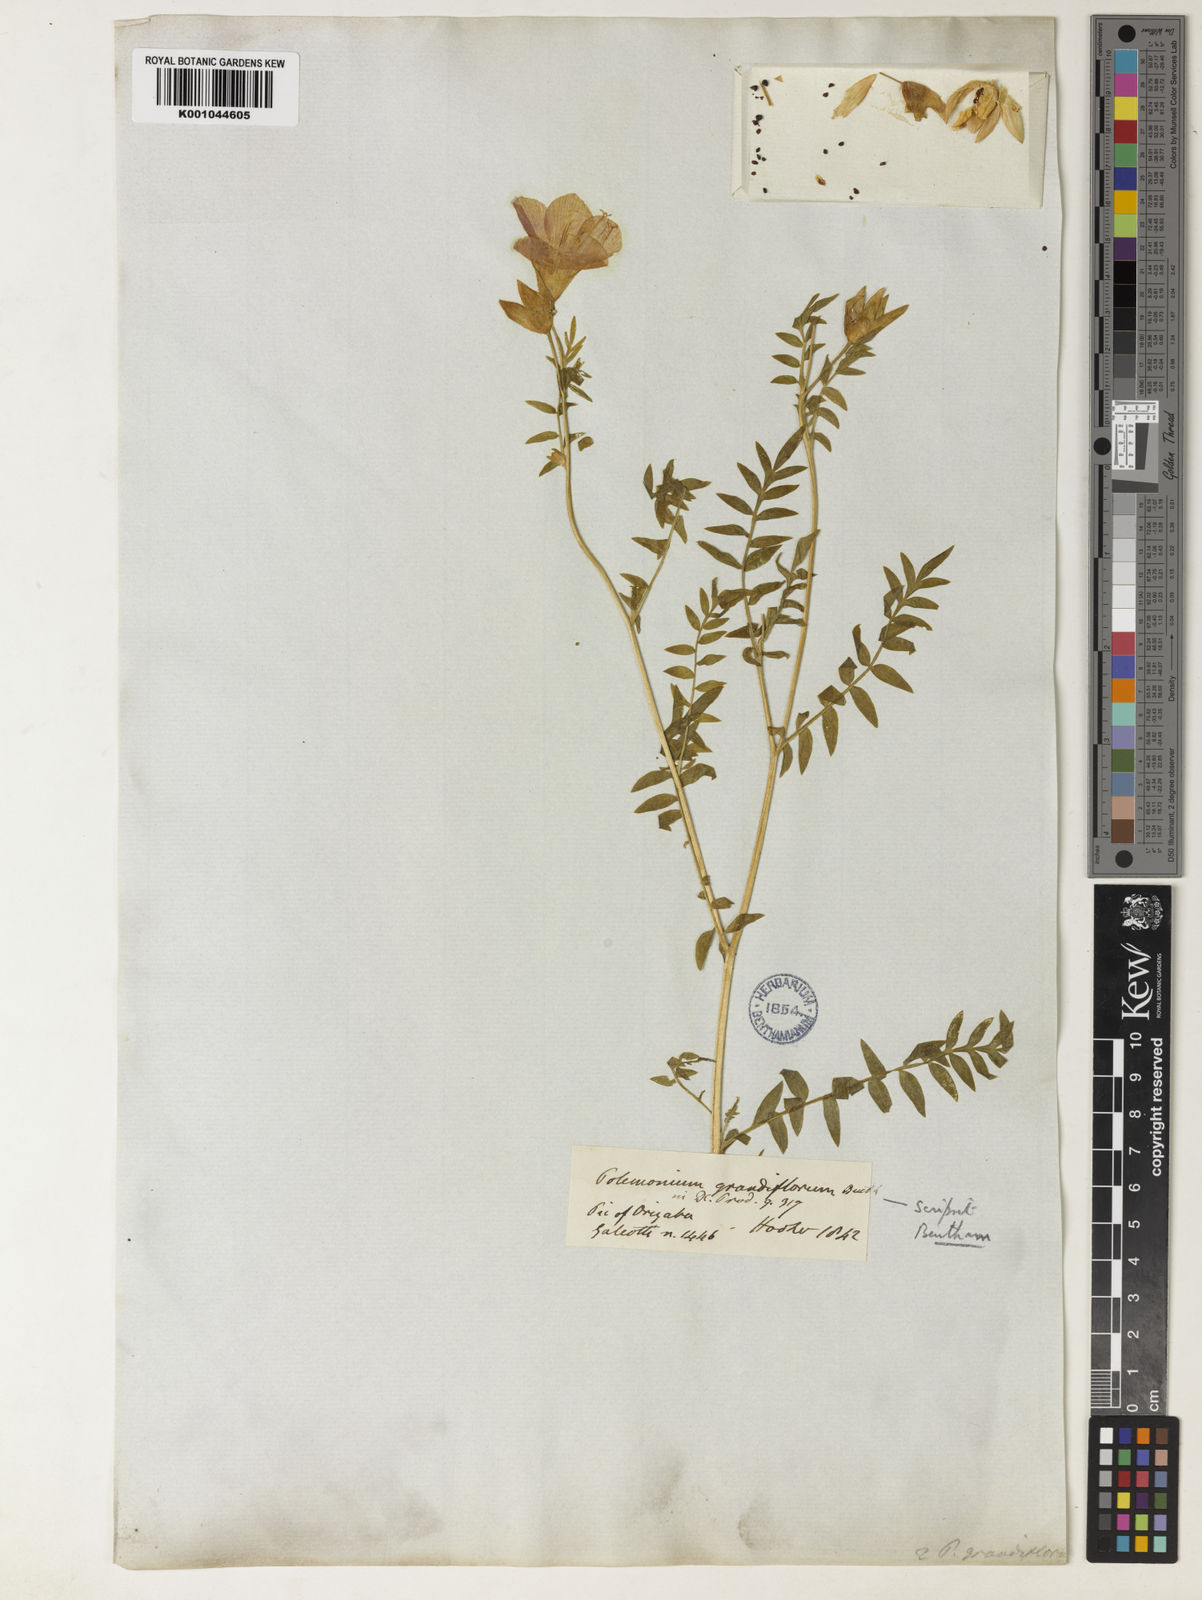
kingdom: Plantae
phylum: Tracheophyta
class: Magnoliopsida
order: Ericales
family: Polemoniaceae
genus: Polemonium
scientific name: Polemonium grandiflorum
